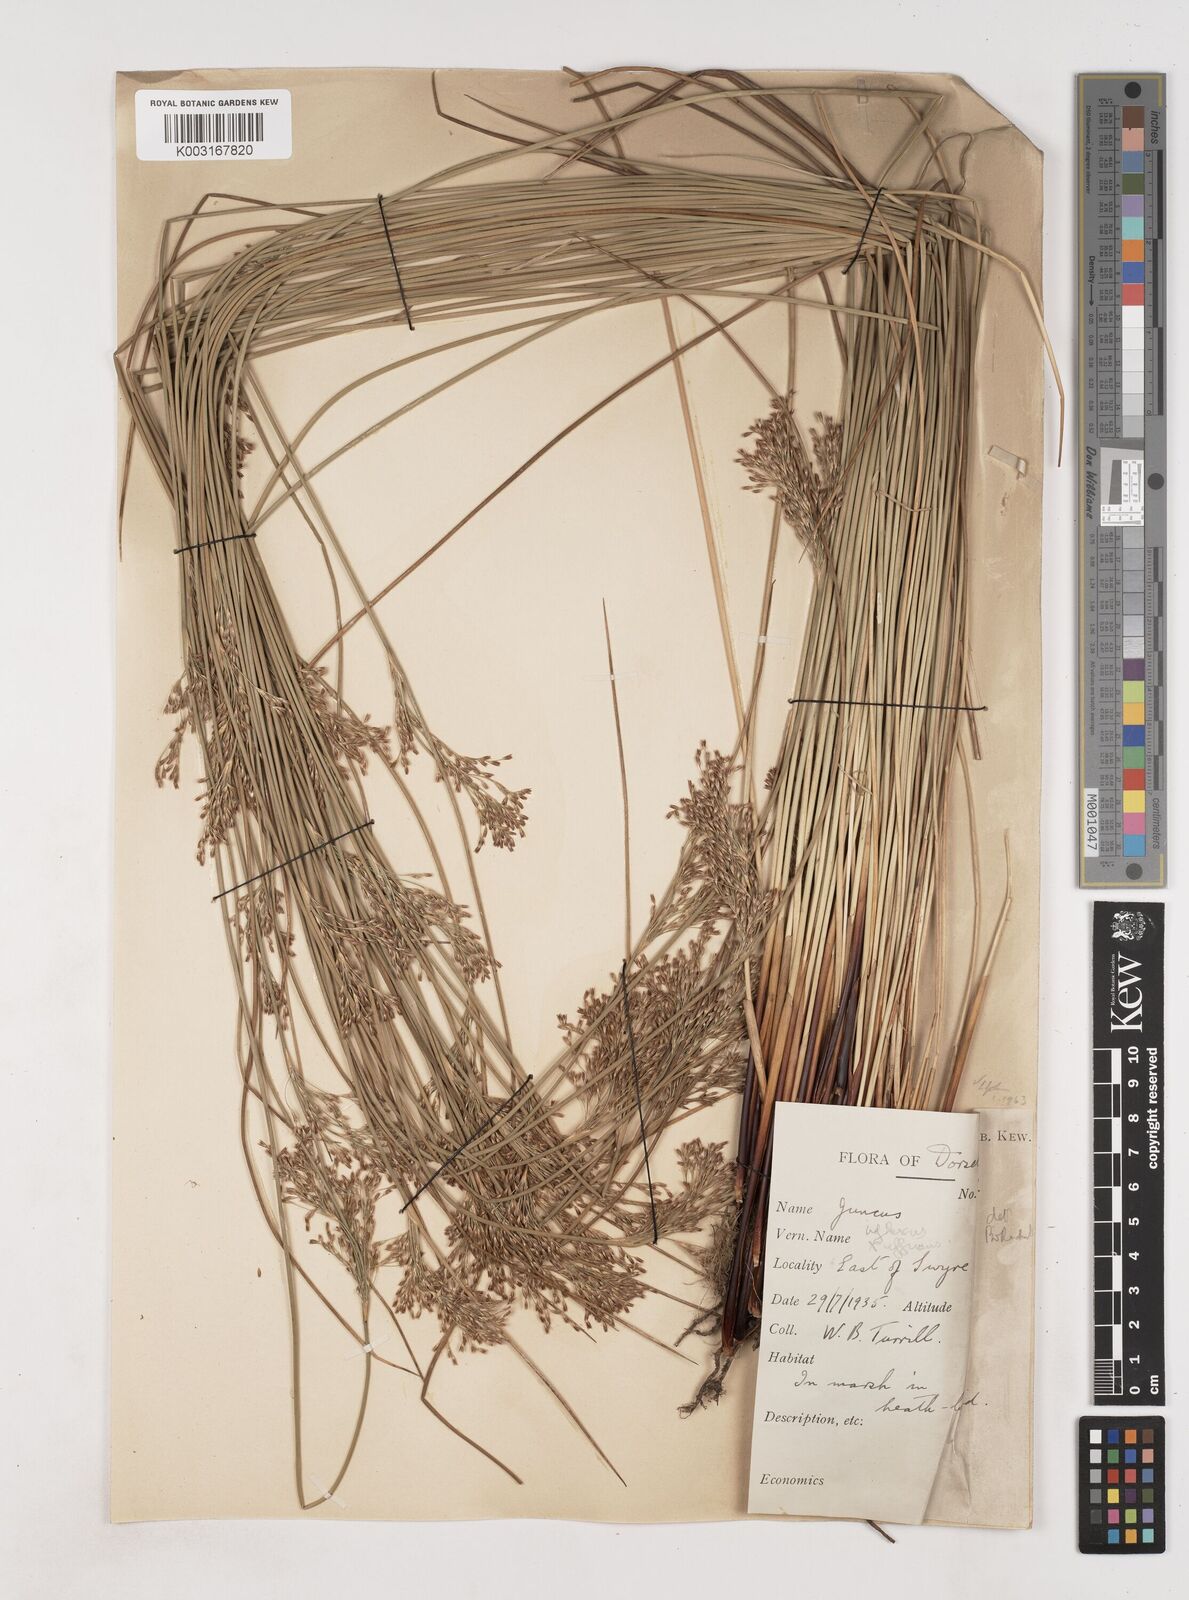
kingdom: Plantae
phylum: Tracheophyta
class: Liliopsida
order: Poales
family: Juncaceae
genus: Juncus
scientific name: Juncus effusus
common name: Soft rush
